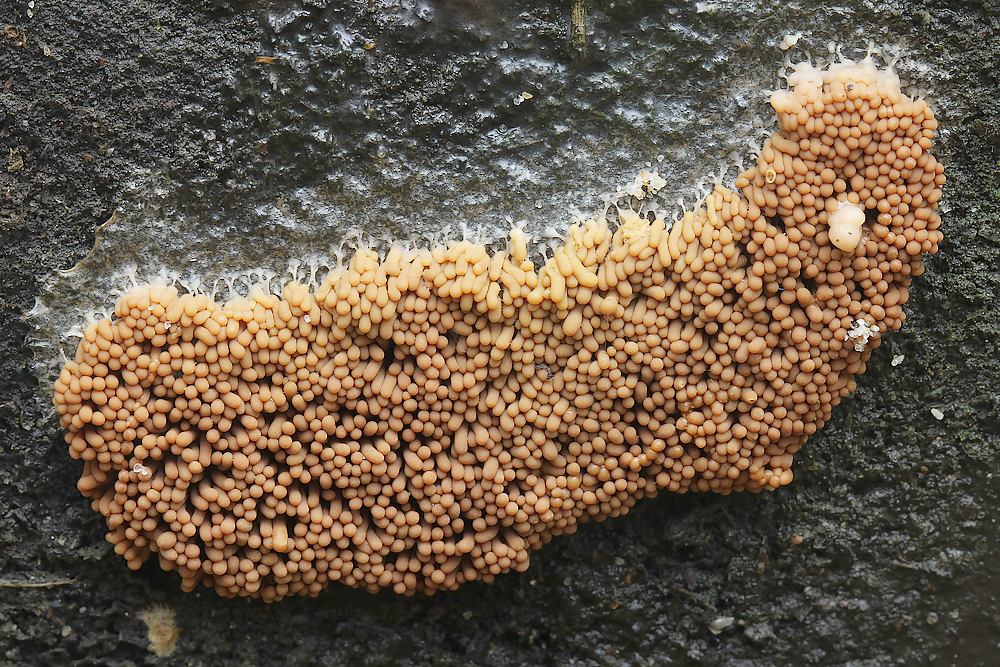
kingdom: Protozoa
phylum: Mycetozoa
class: Myxomycetes
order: Trichiales
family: Arcyriaceae
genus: Arcyria
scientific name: Arcyria ferruginea
